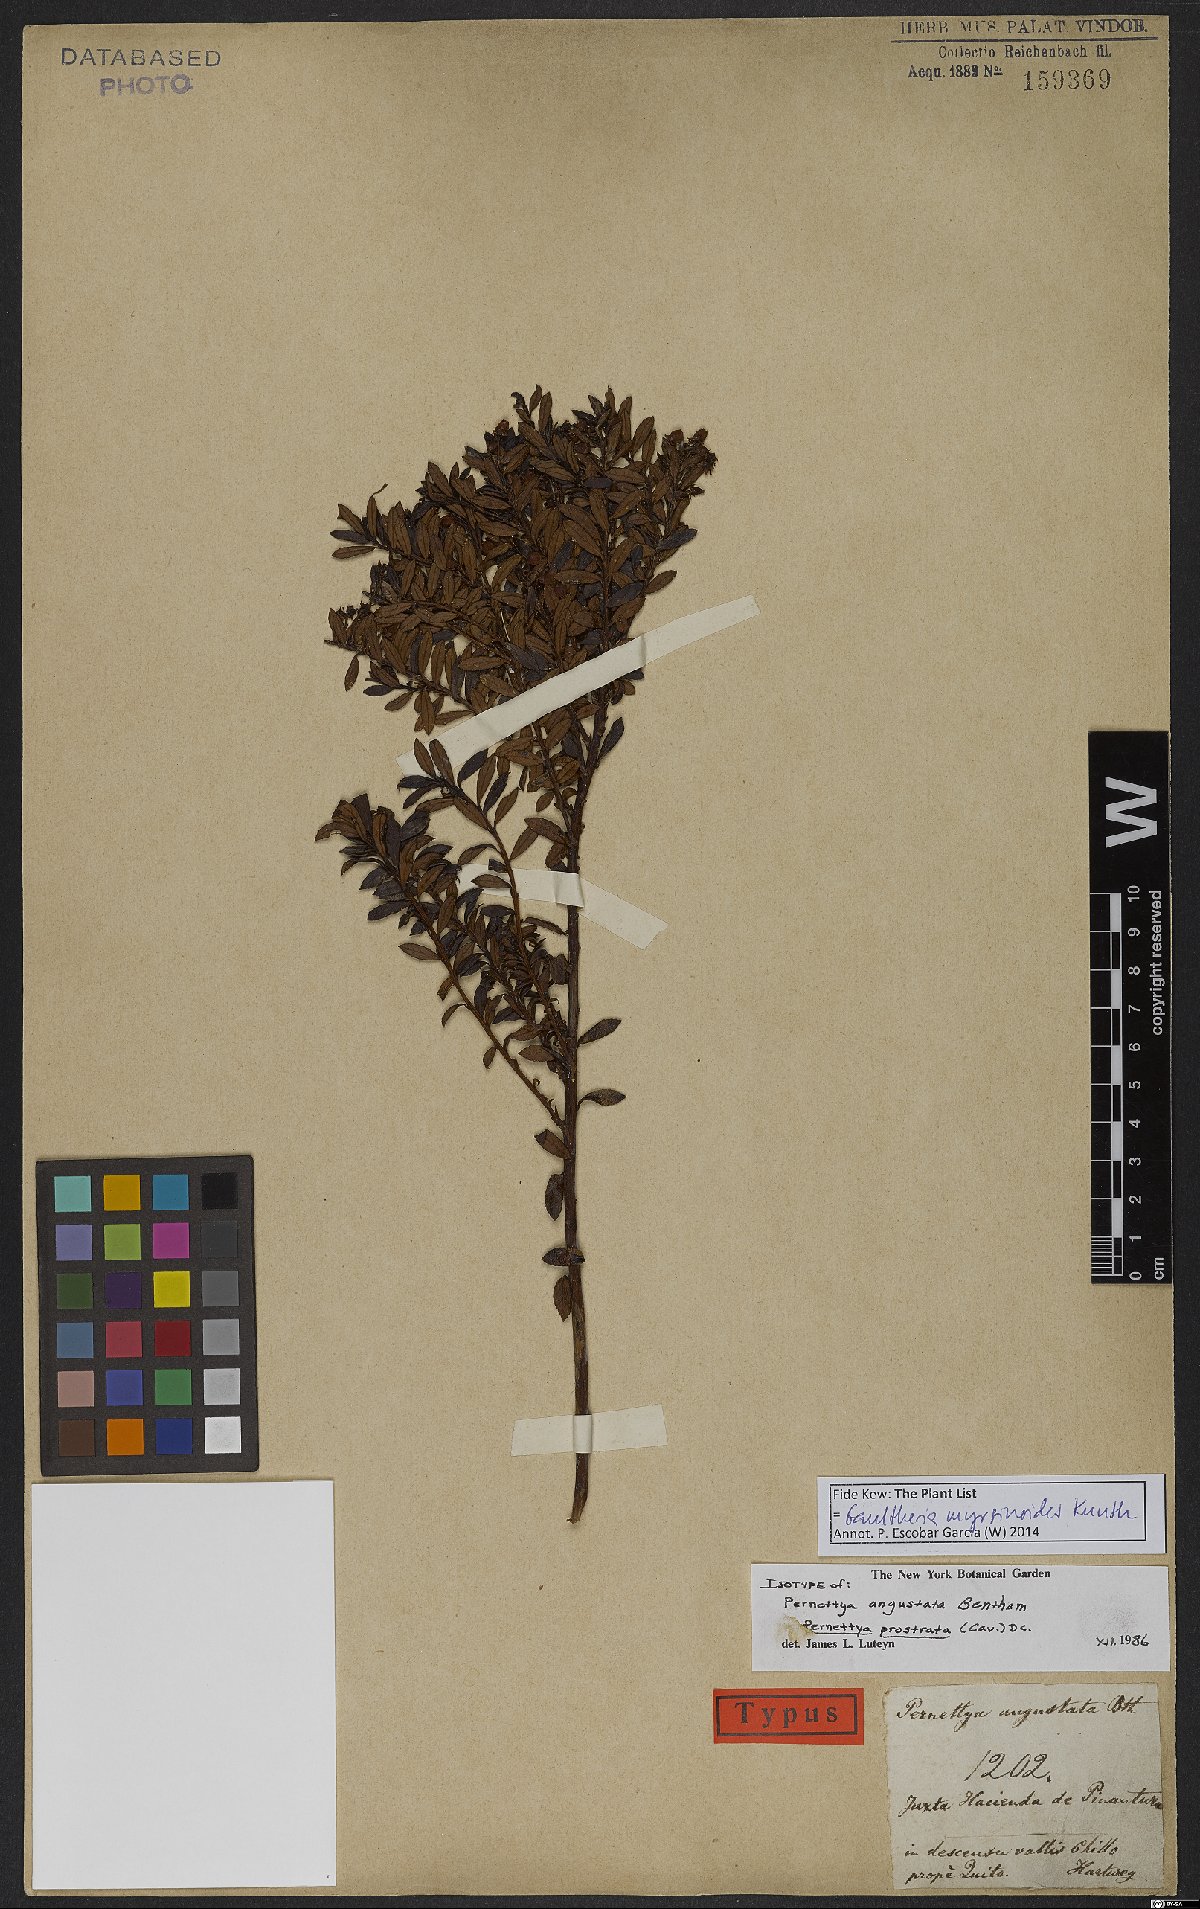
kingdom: Plantae
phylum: Tracheophyta
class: Magnoliopsida
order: Ericales
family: Ericaceae
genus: Gaultheria
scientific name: Gaultheria myrsinoides
